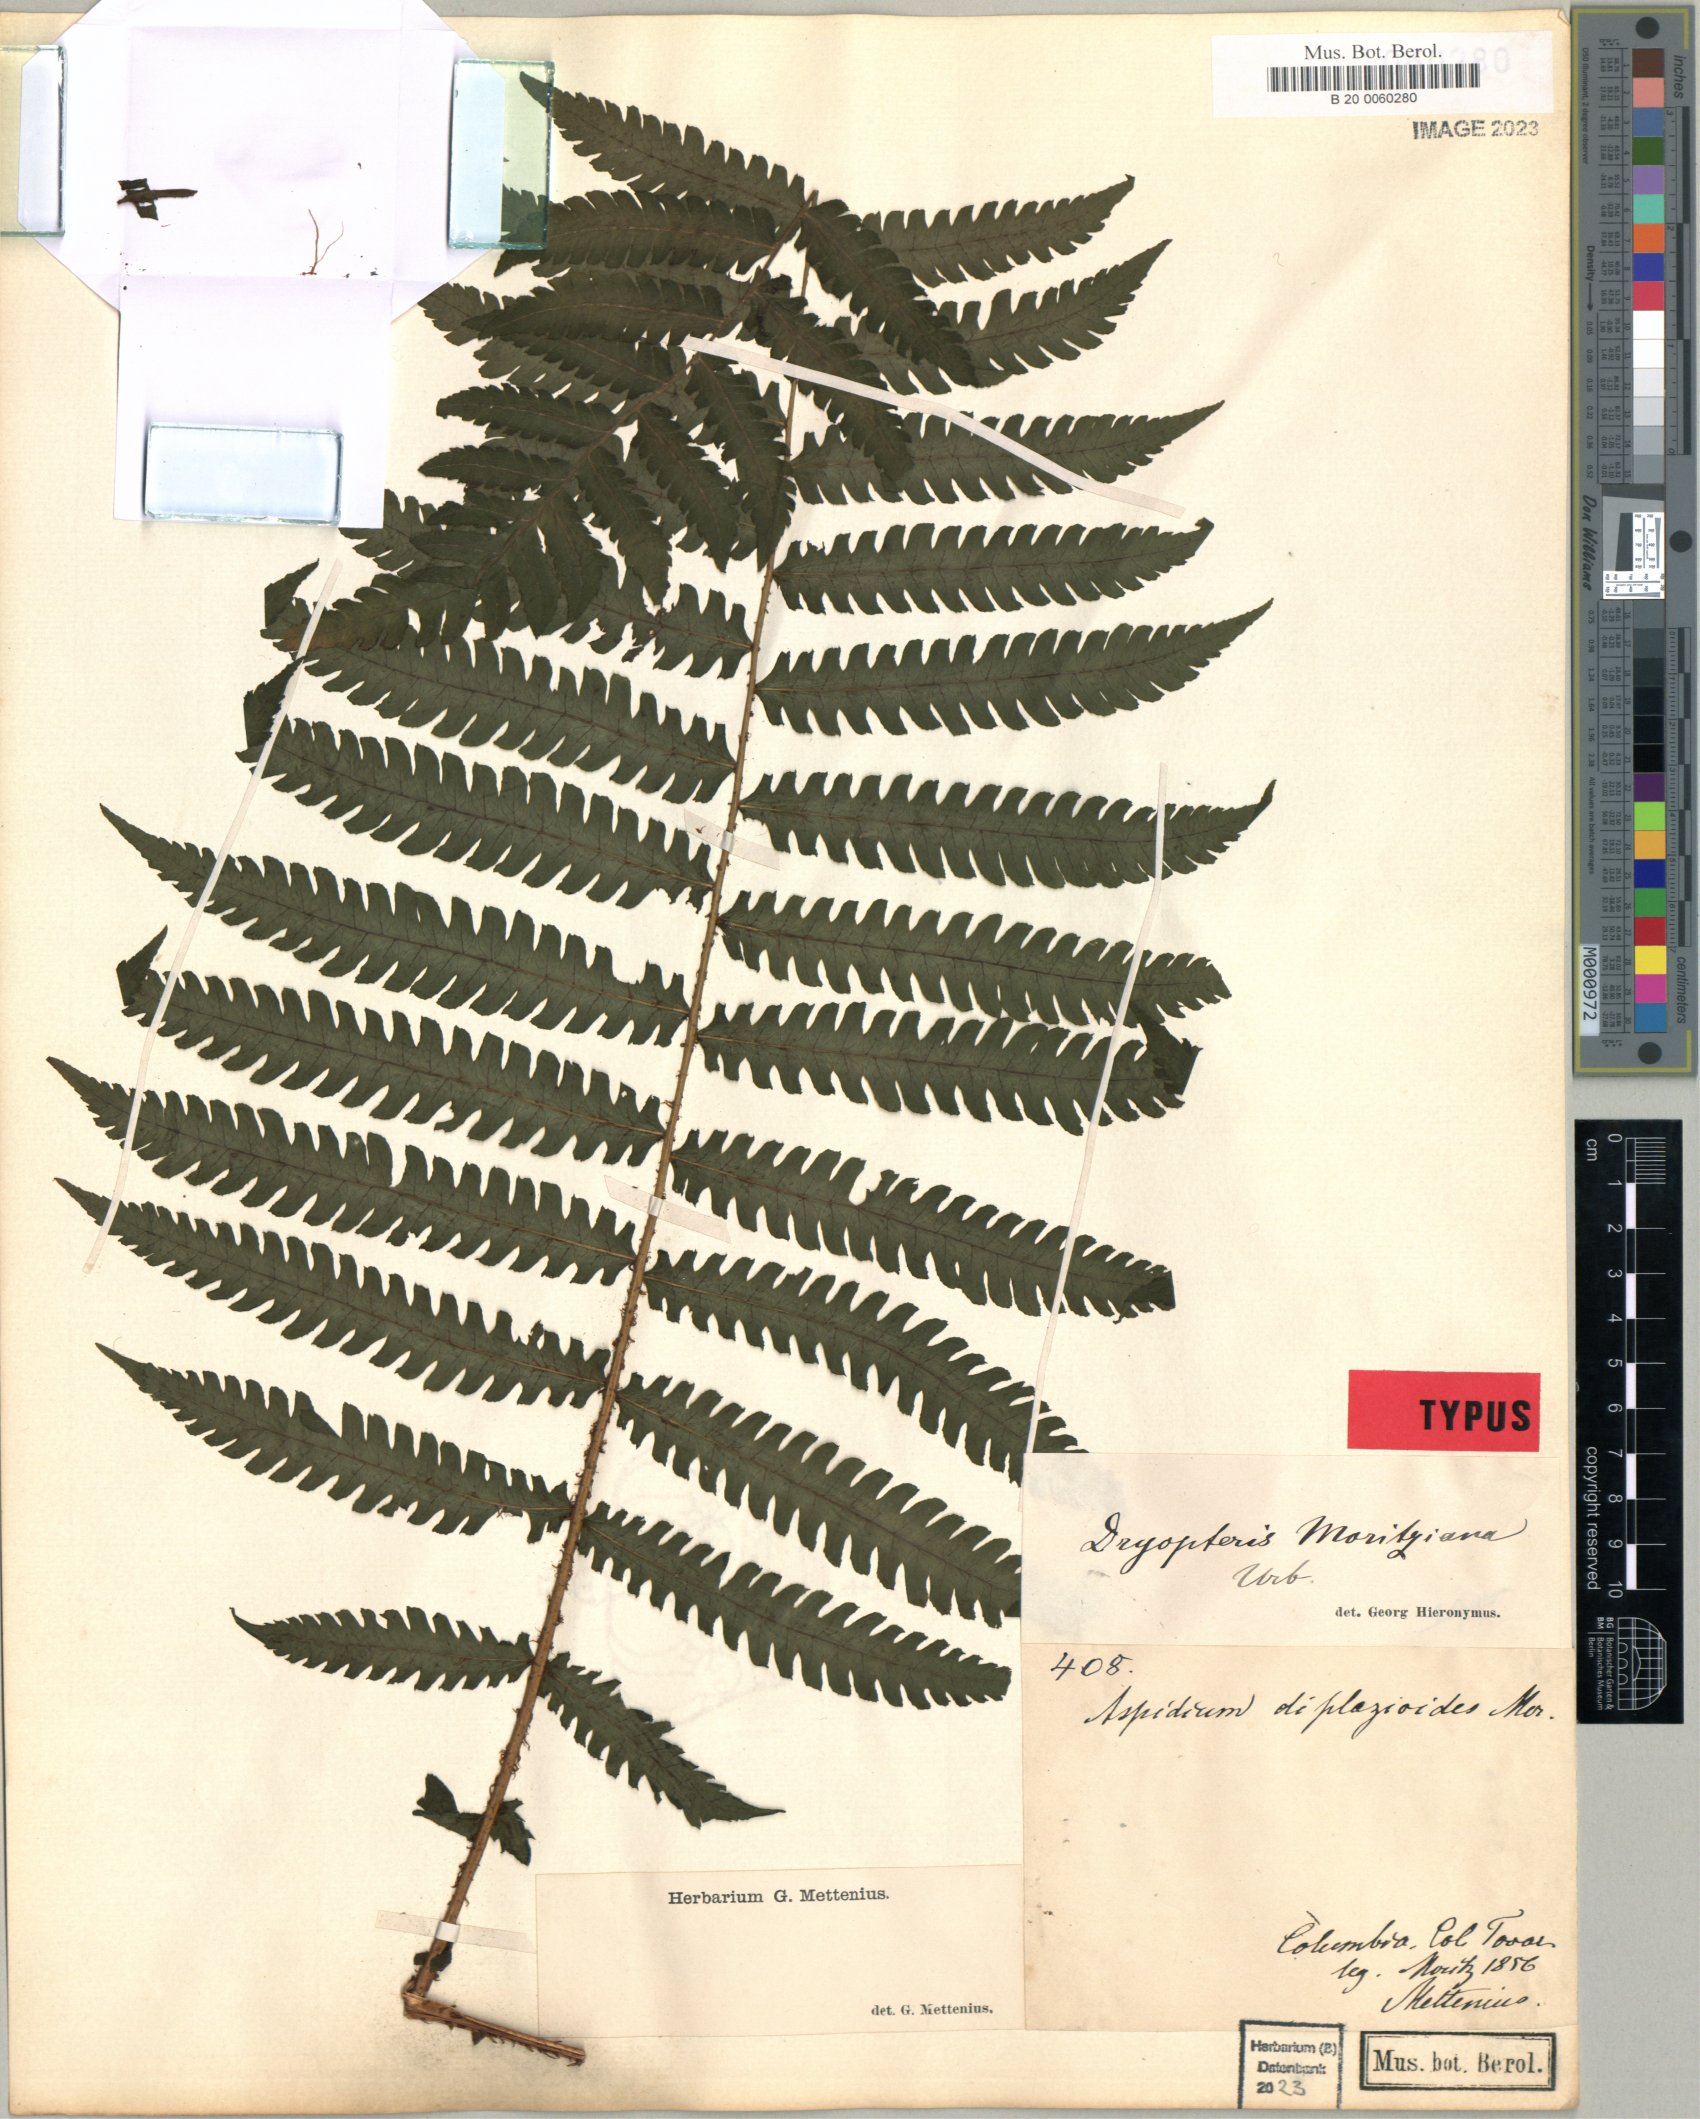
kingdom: Plantae
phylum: Tracheophyta
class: Polypodiopsida
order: Polypodiales
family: Thelypteridaceae
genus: Amauropelta
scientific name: Amauropelta moritziana
